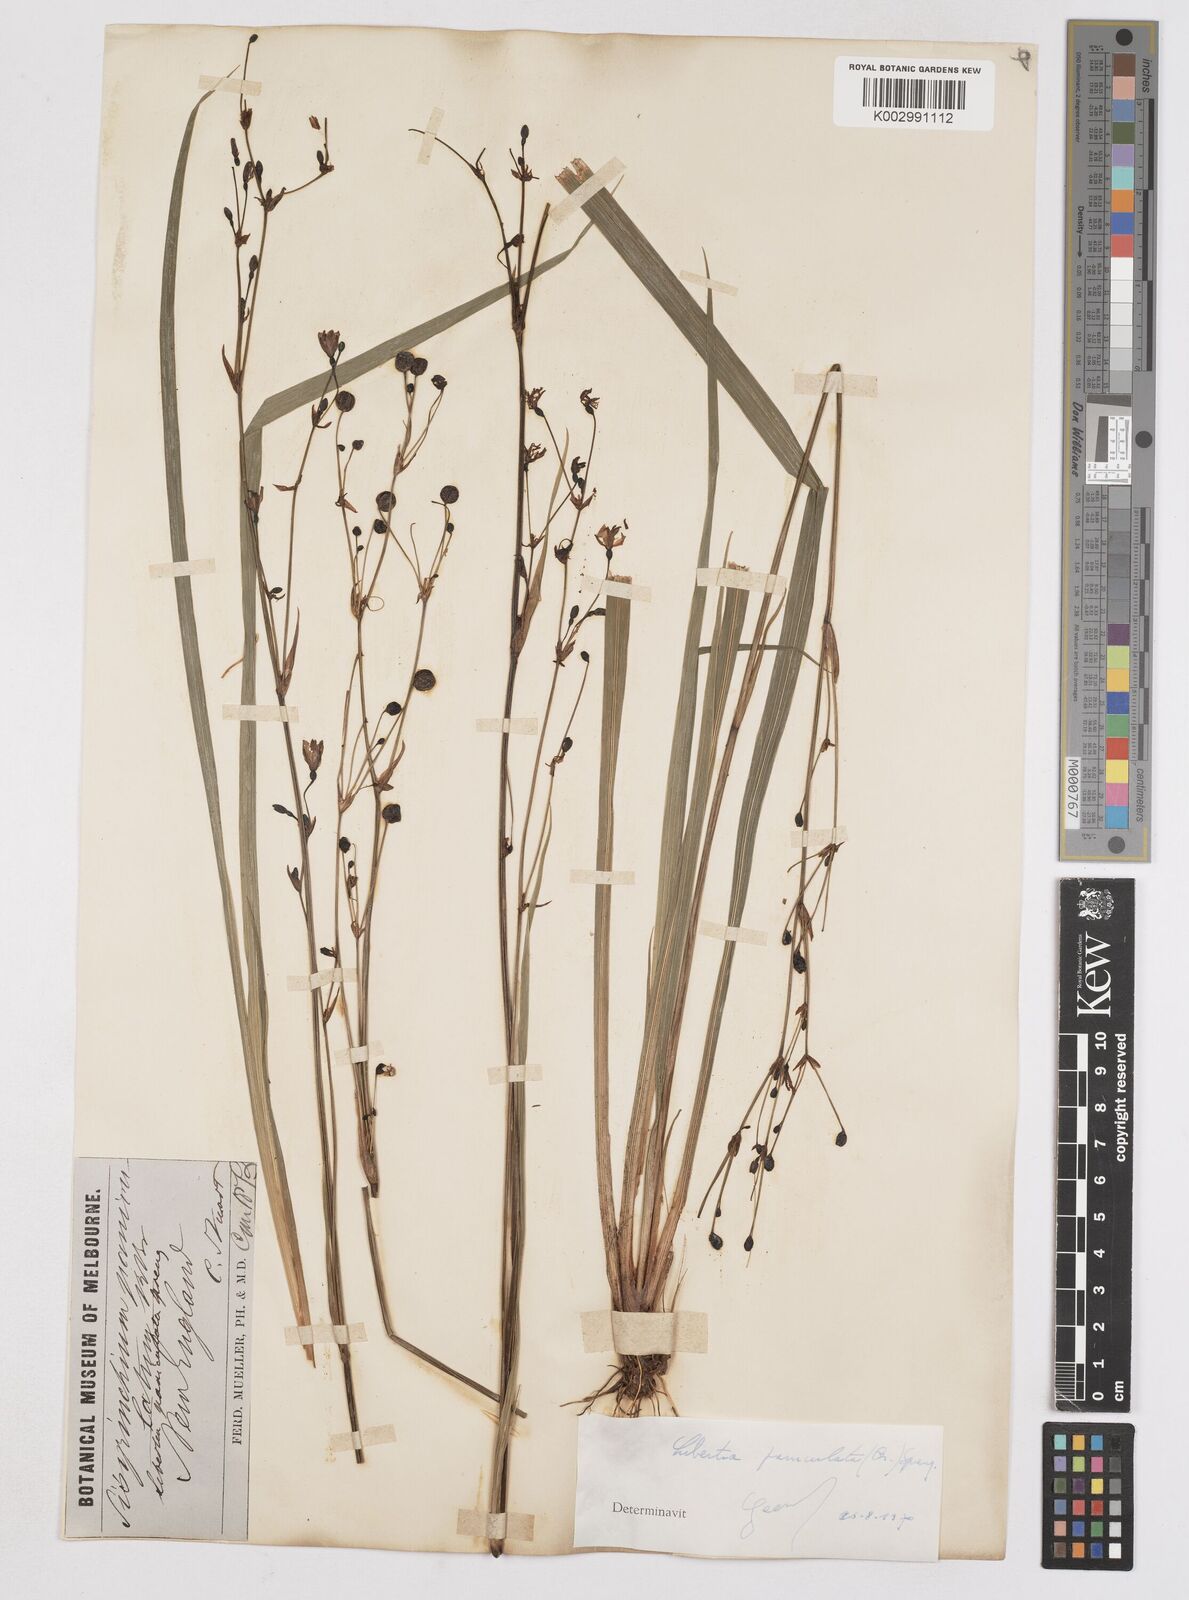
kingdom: Plantae
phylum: Tracheophyta
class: Liliopsida
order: Asparagales
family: Iridaceae
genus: Libertia
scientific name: Libertia paniculata
